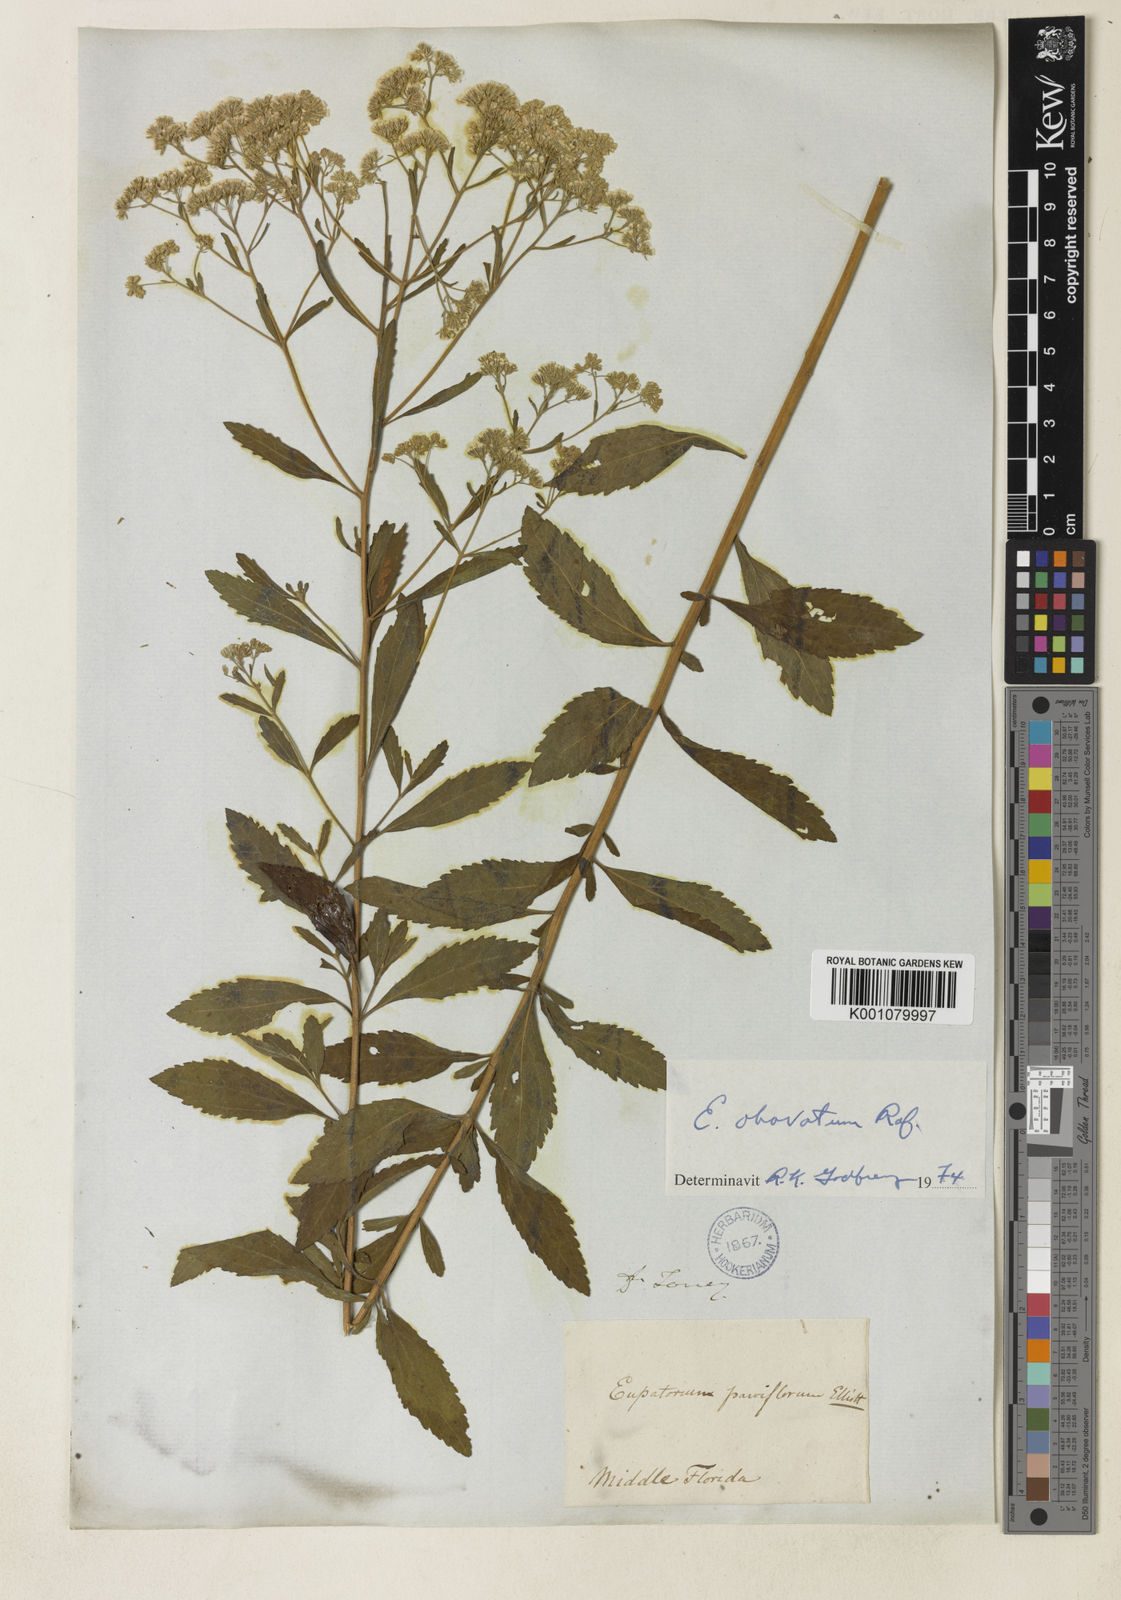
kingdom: Plantae
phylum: Tracheophyta
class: Magnoliopsida
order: Asterales
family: Asteraceae
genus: Eupatorium
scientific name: Eupatorium rotundifolium
